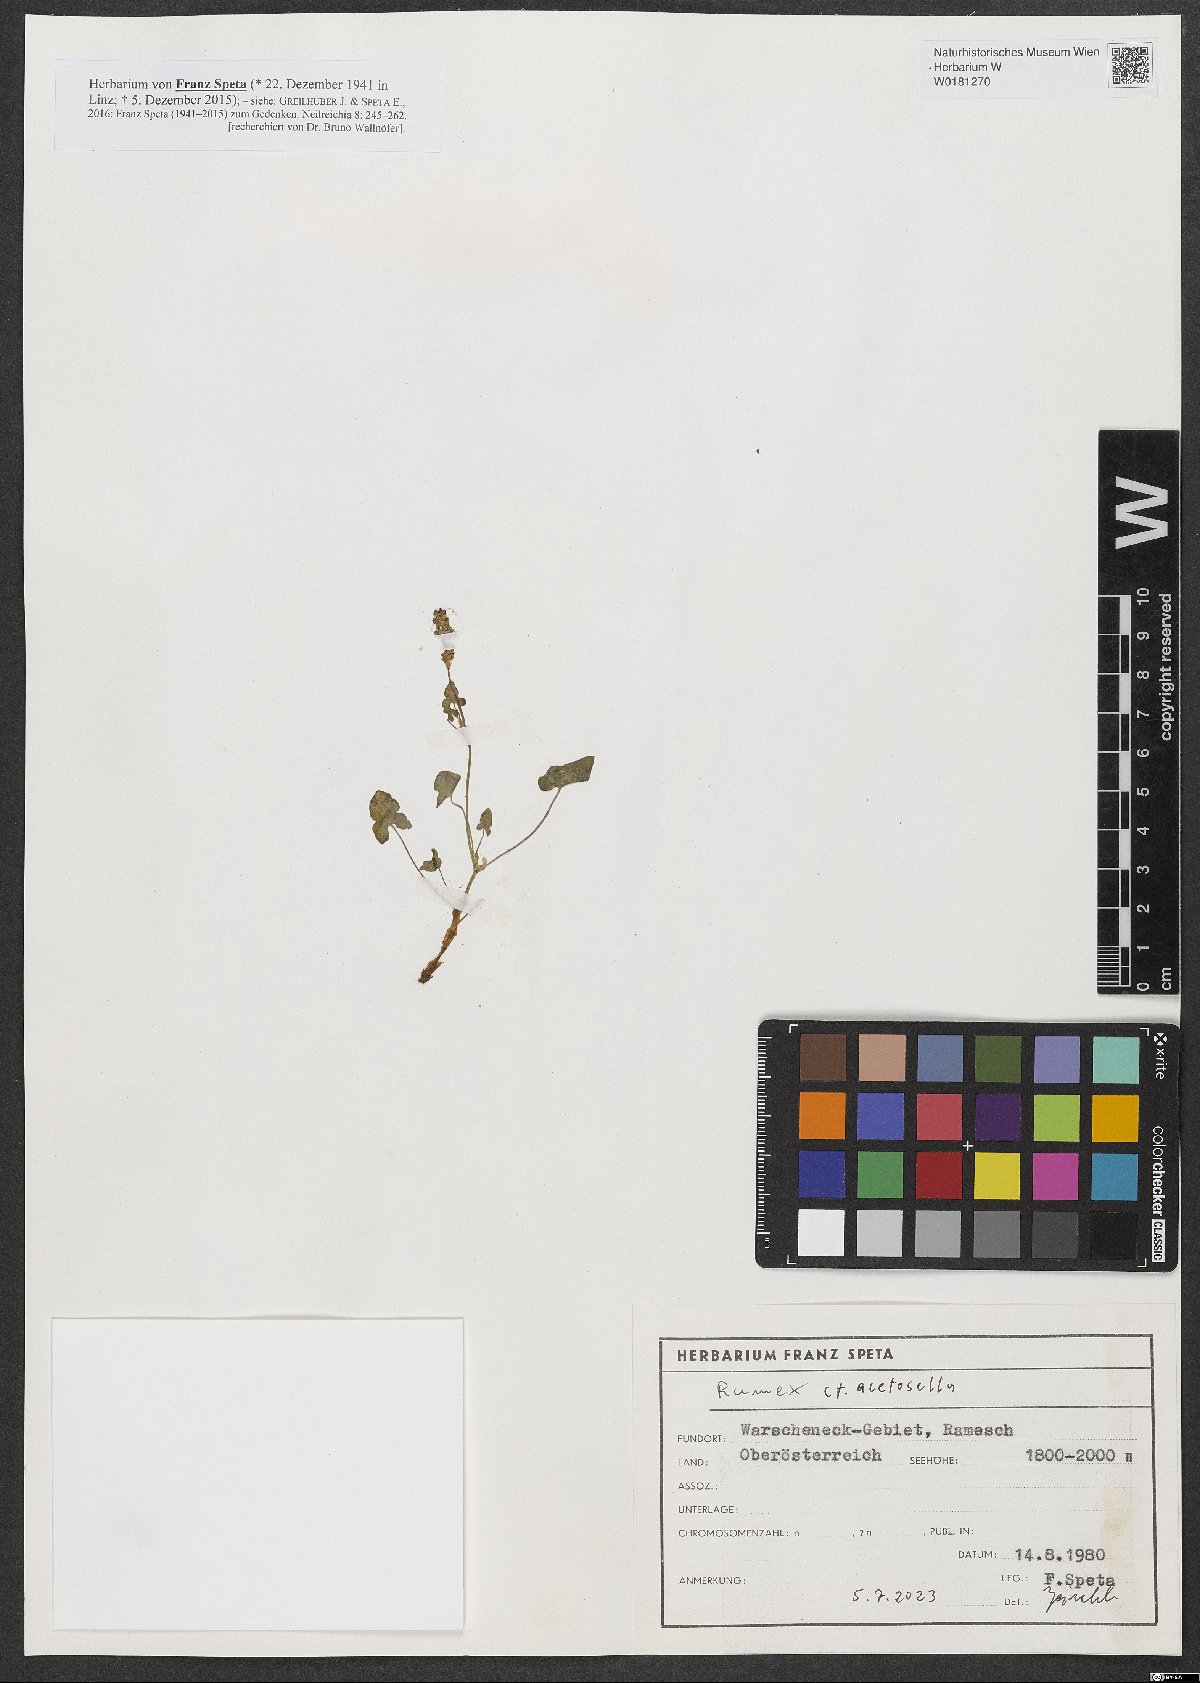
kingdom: Plantae
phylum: Tracheophyta
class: Magnoliopsida
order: Caryophyllales
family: Polygonaceae
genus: Rumex
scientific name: Rumex acetosella
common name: Common sheep sorrel
